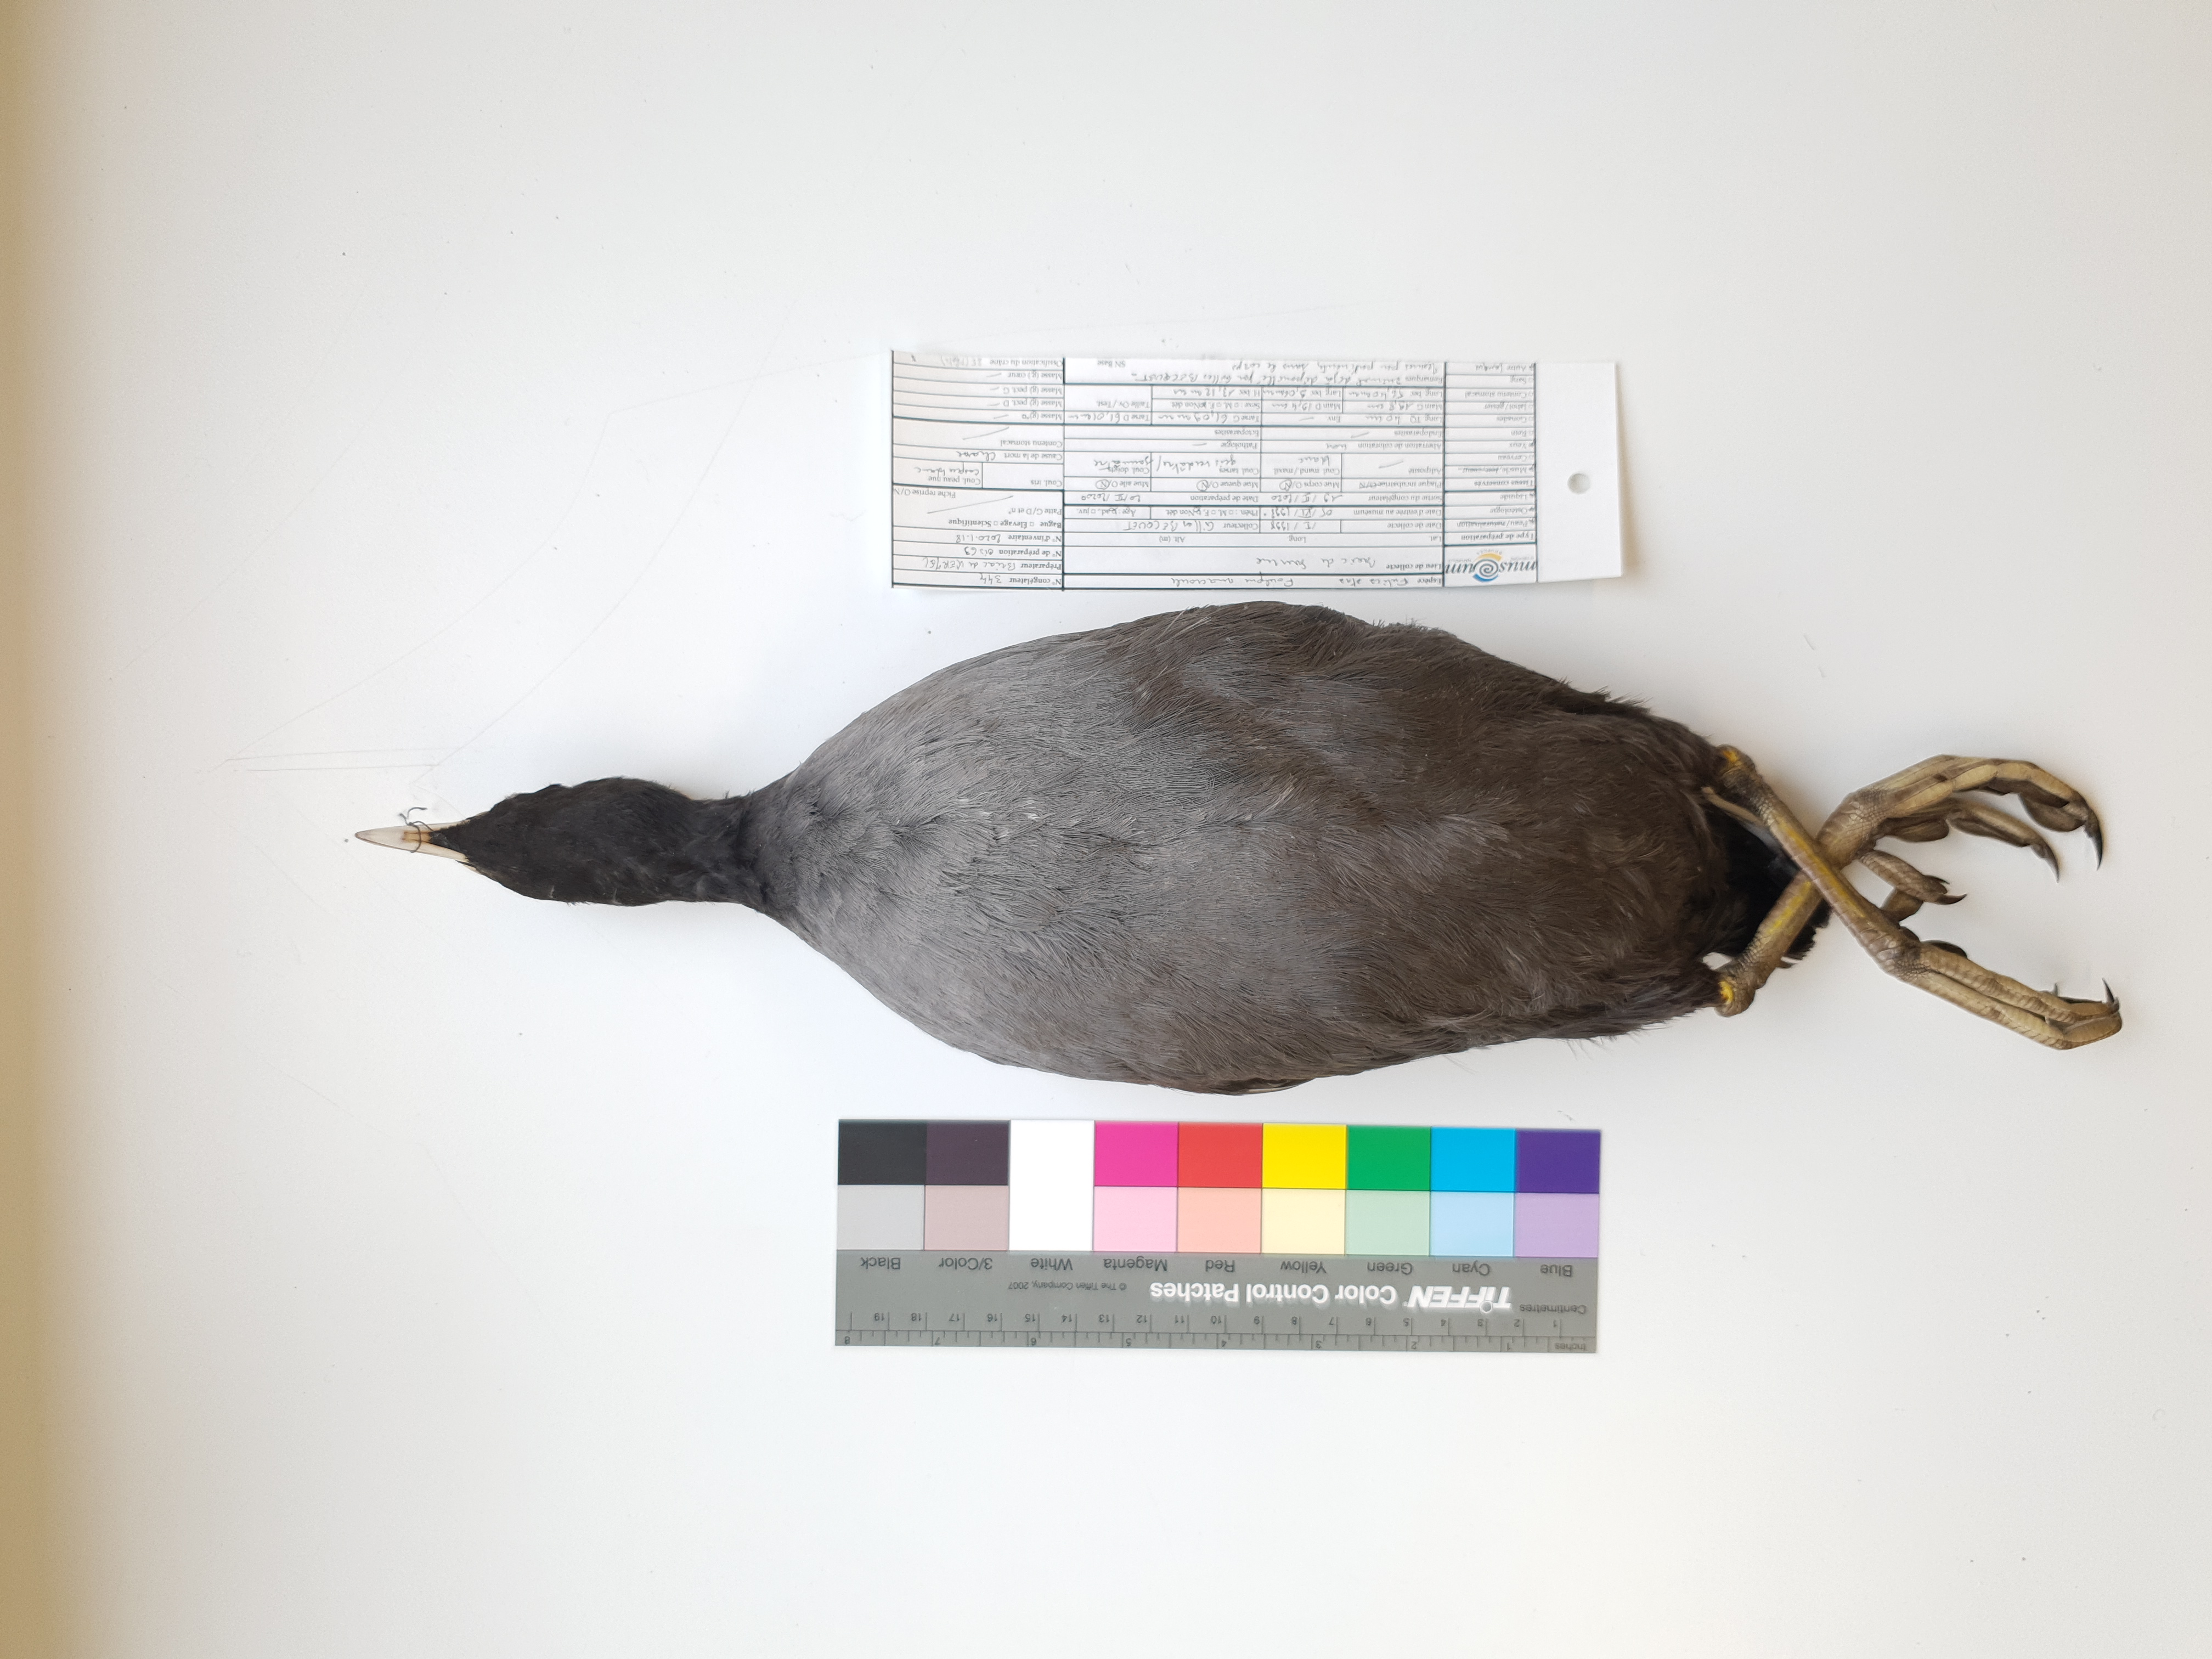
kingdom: Animalia
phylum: Chordata
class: Aves
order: Gruiformes
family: Rallidae
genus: Fulica
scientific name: Fulica atra
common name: Eurasian coot
